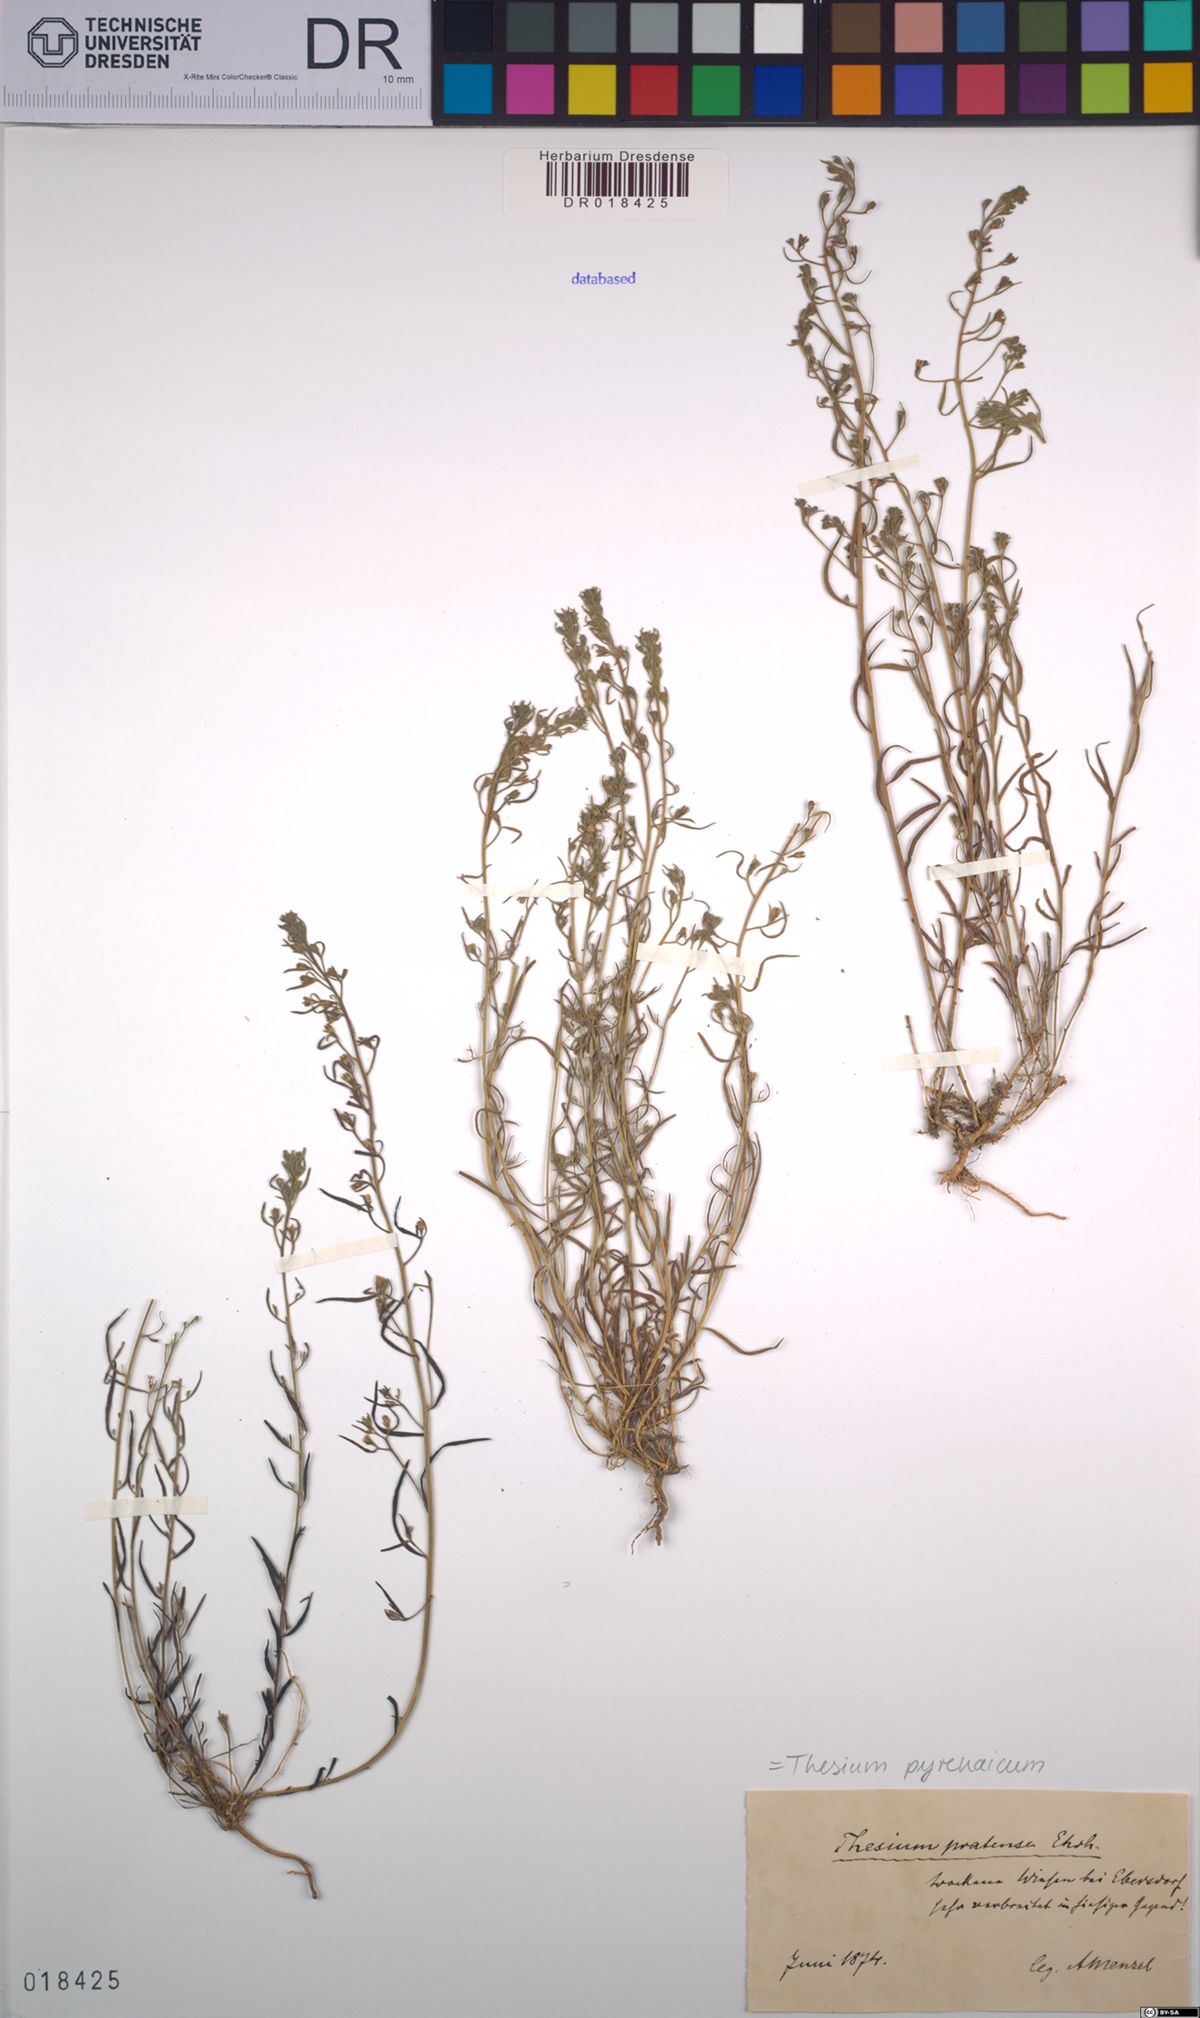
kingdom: Plantae
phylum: Tracheophyta
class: Magnoliopsida
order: Santalales
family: Thesiaceae
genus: Thesium
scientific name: Thesium pyrenaicum
